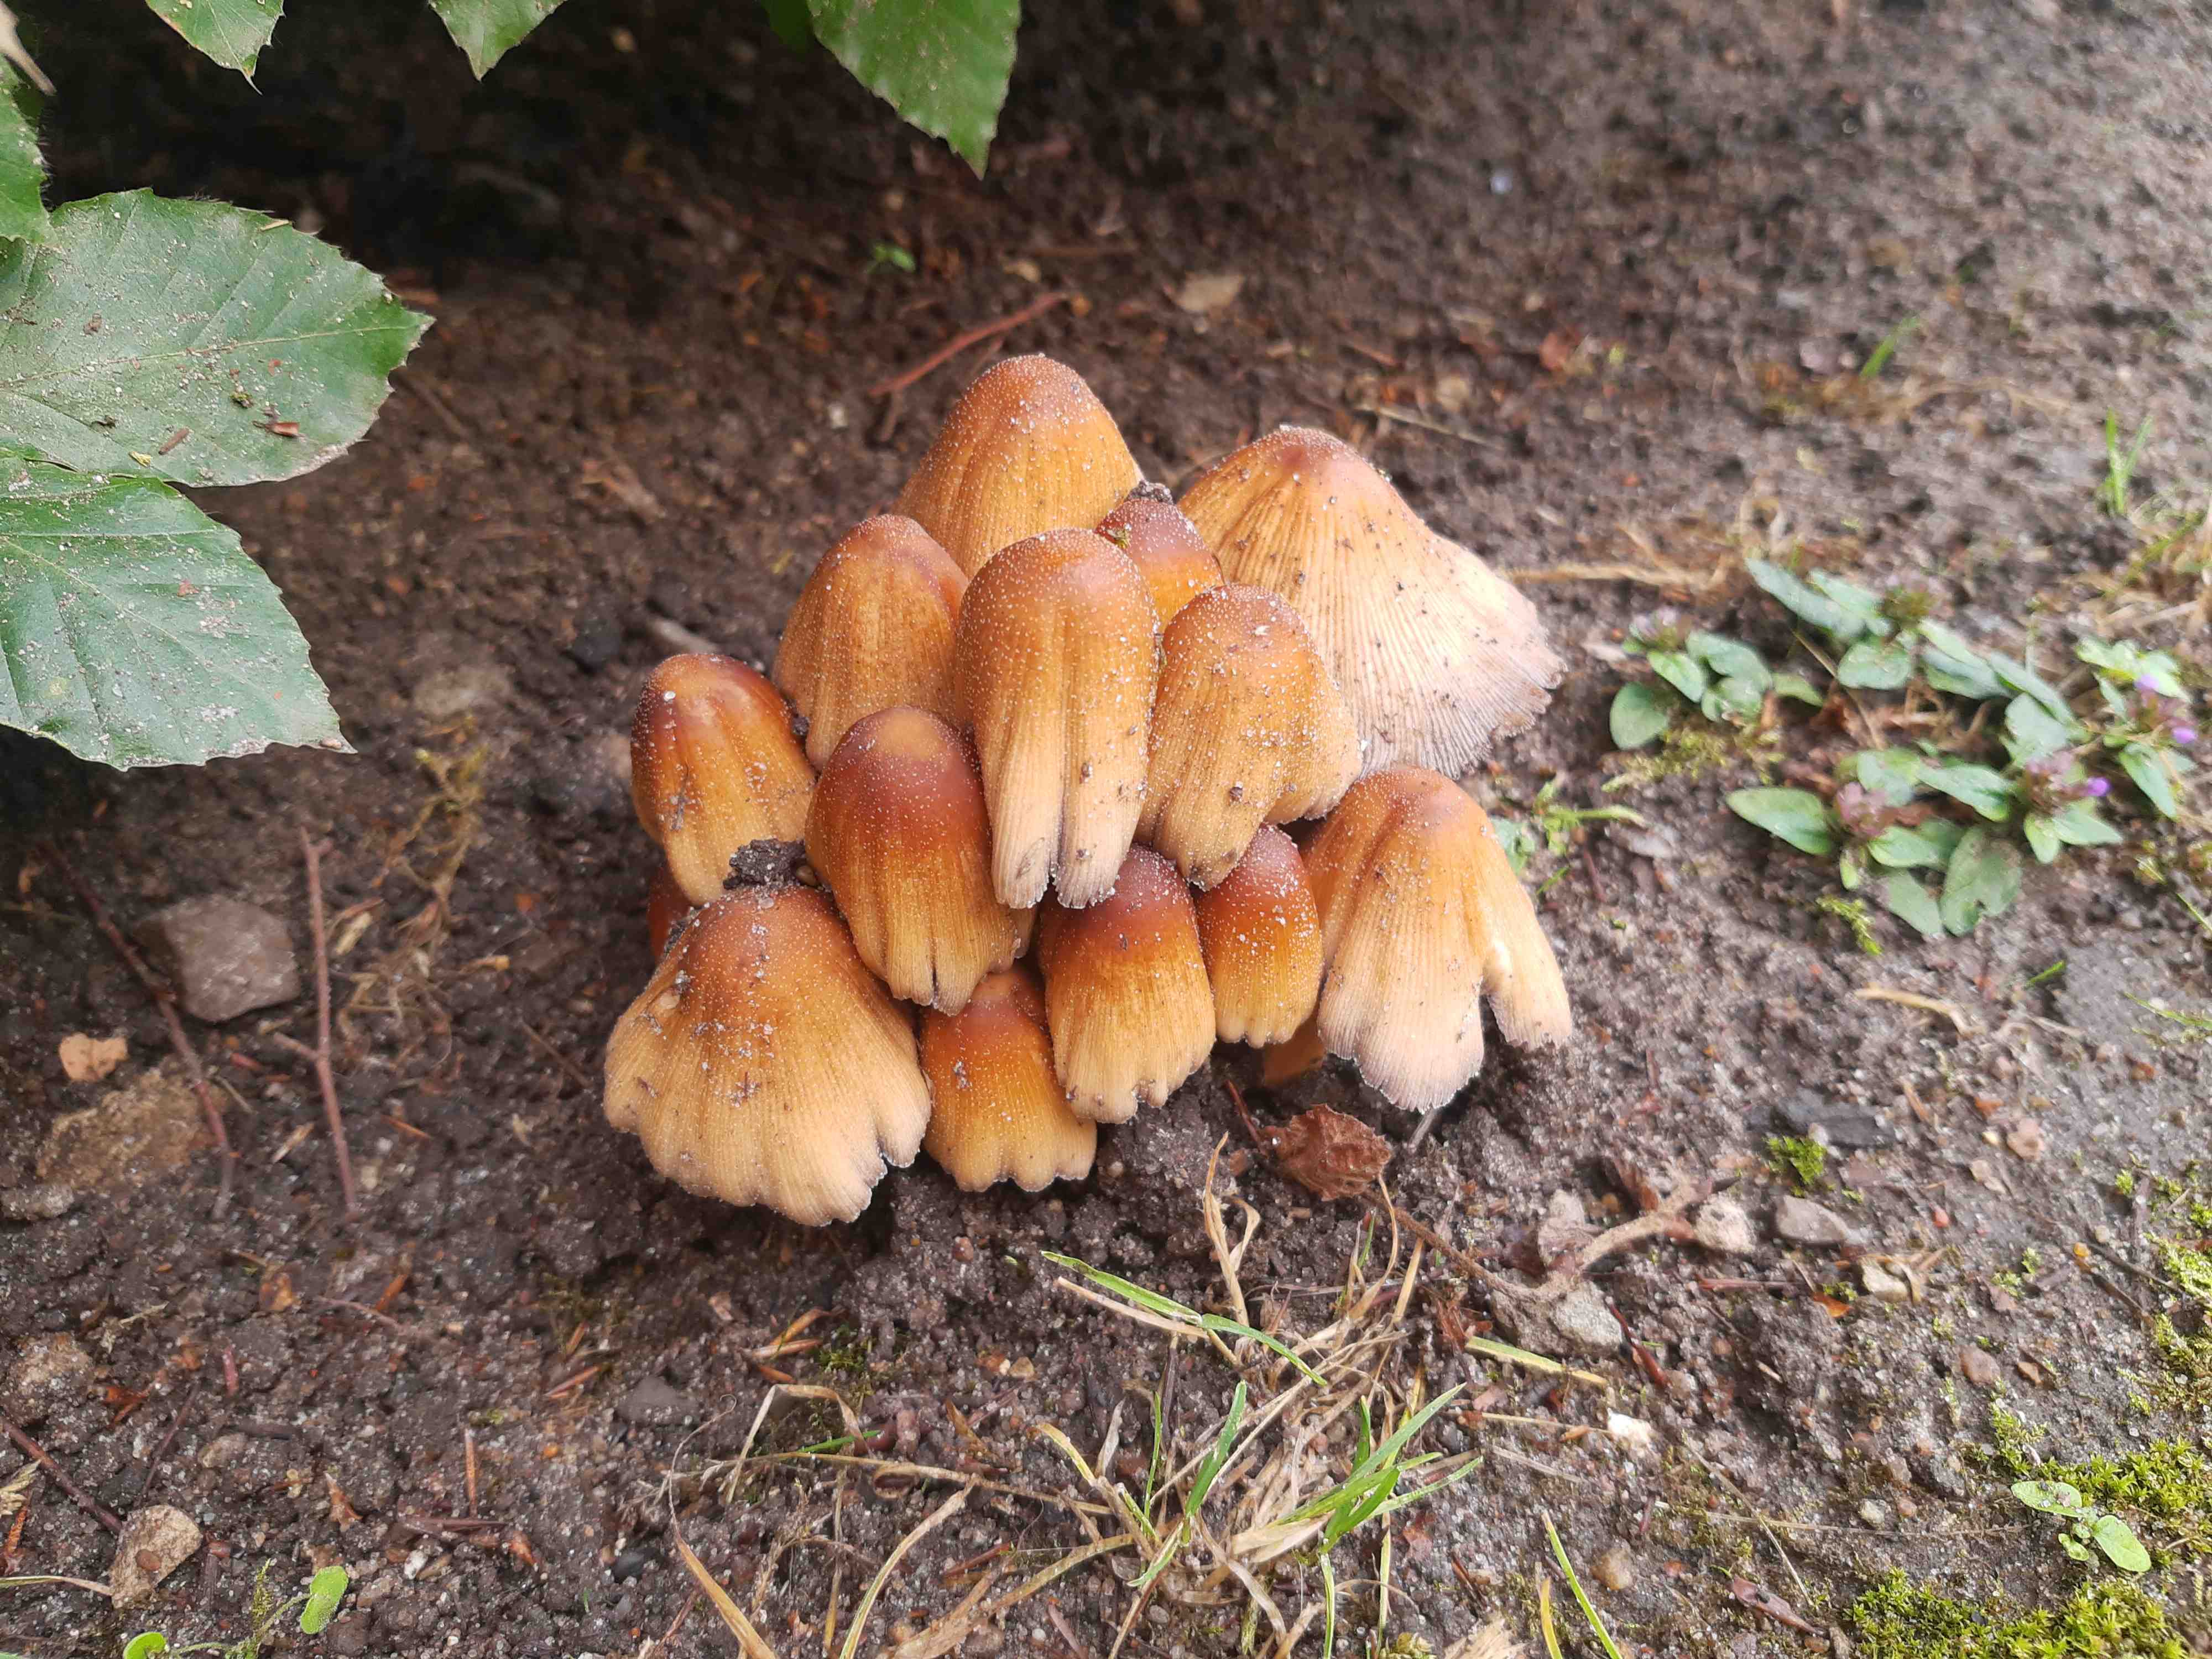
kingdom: Fungi
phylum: Basidiomycota
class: Agaricomycetes
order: Agaricales
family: Psathyrellaceae
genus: Coprinellus
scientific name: Coprinellus micaceus
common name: glimmer-blækhat
